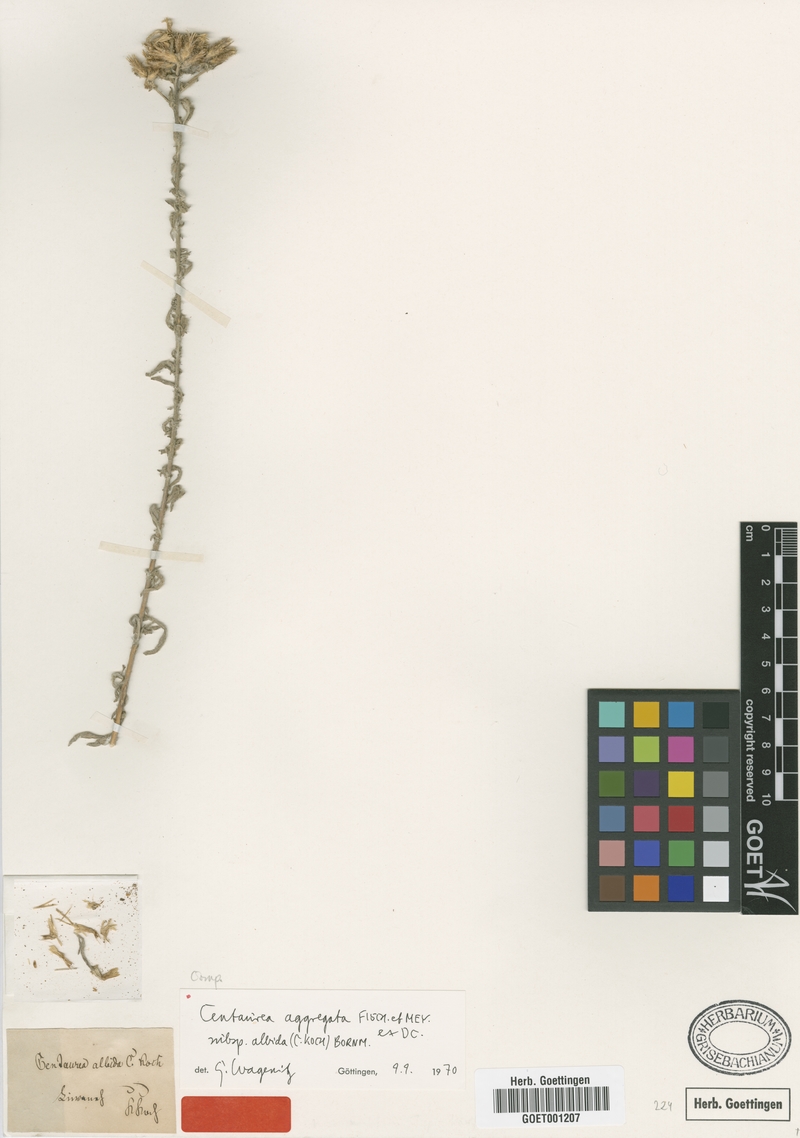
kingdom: Plantae
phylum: Tracheophyta
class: Magnoliopsida
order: Asterales
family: Asteraceae
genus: Centaurea
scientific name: Centaurea aggregata
